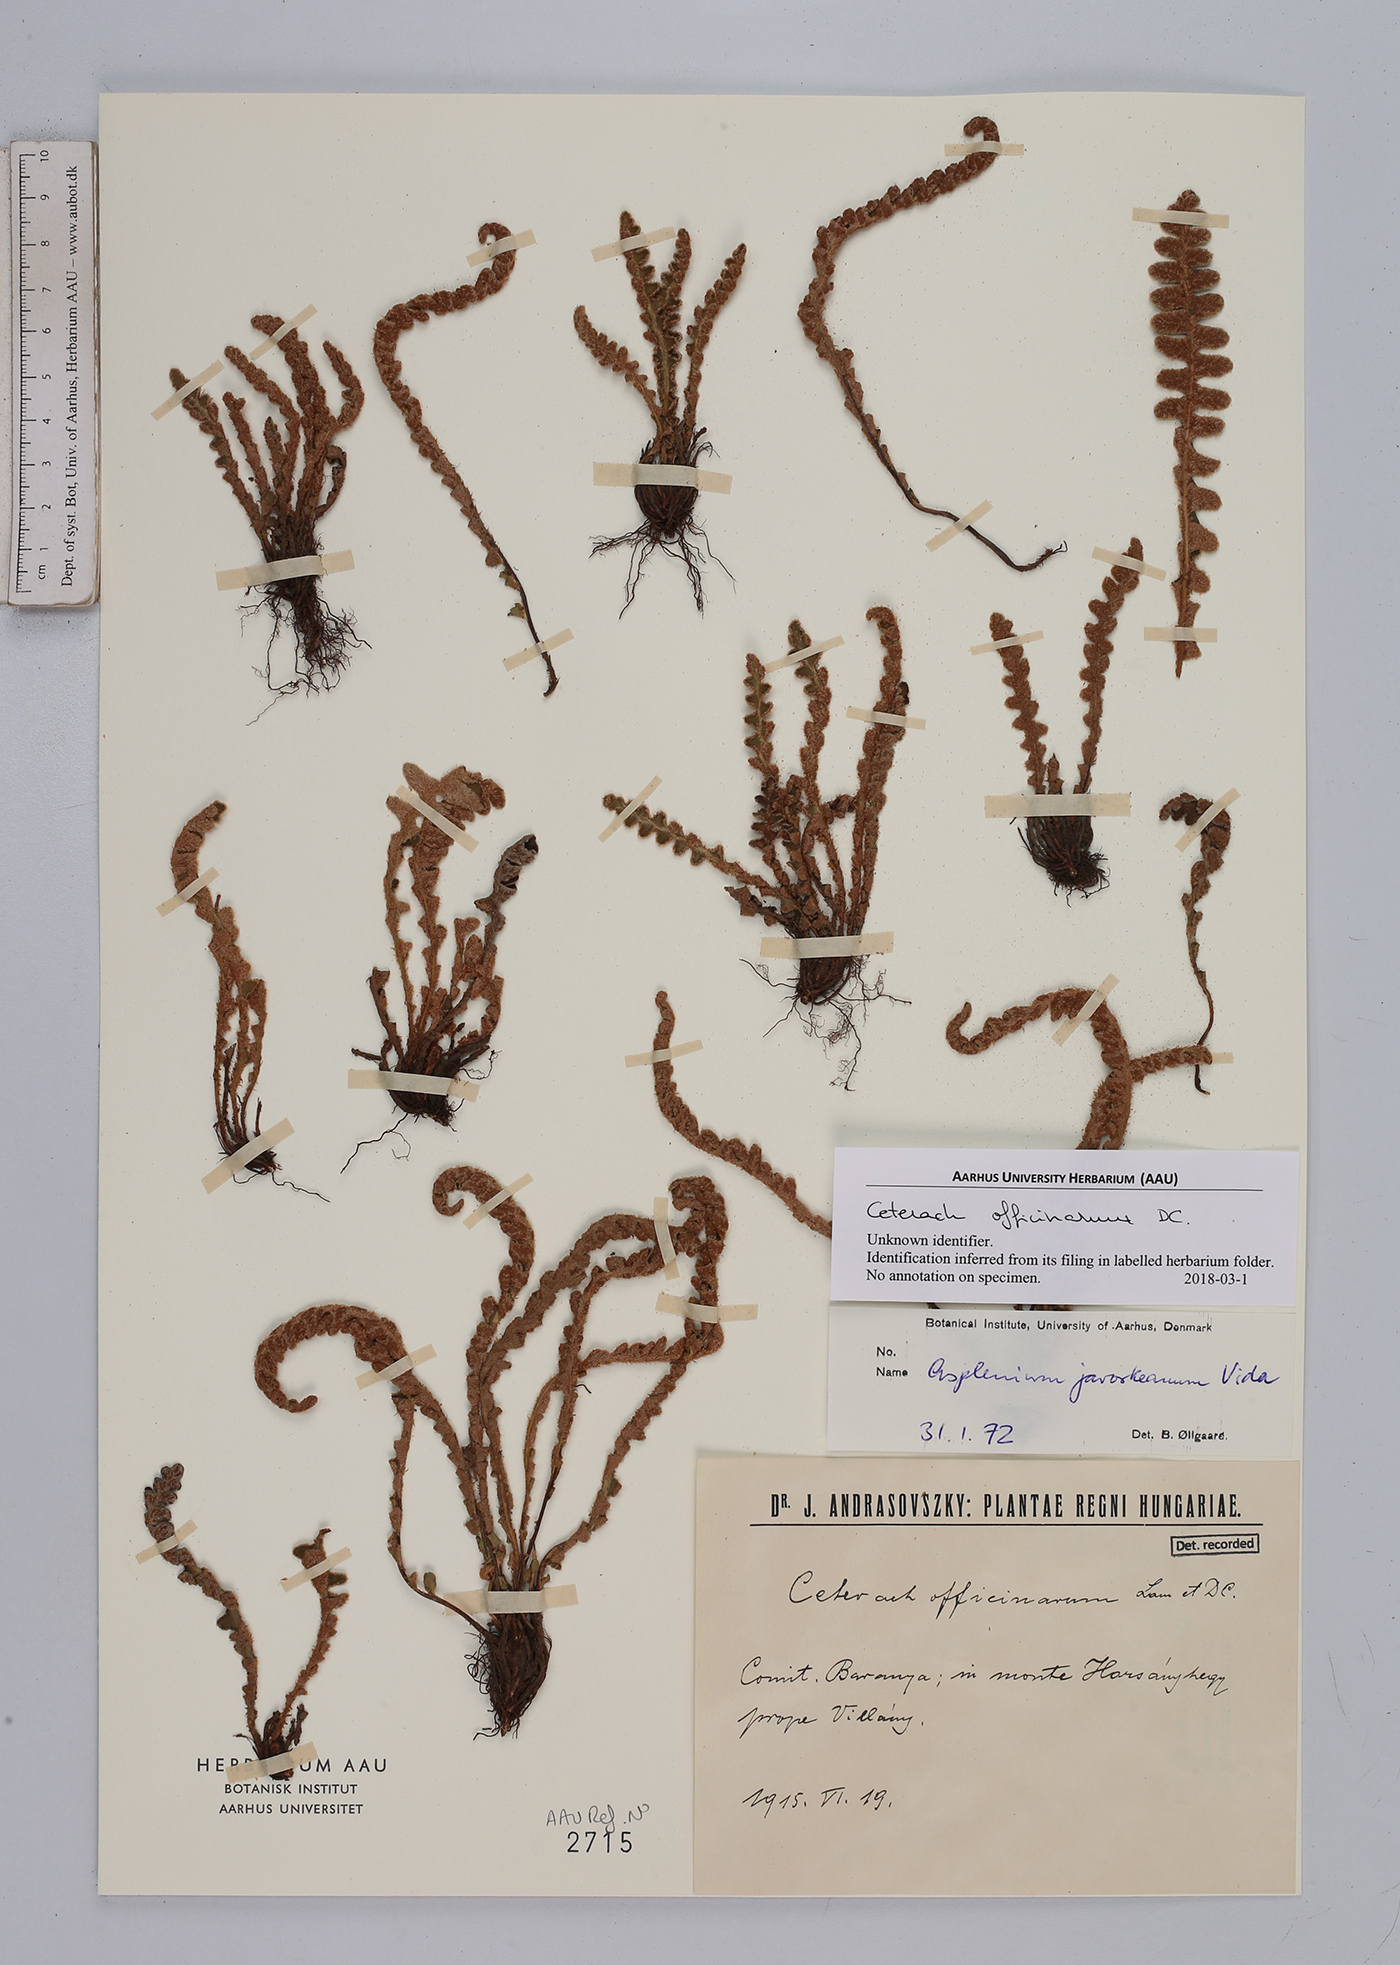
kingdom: Plantae
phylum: Tracheophyta
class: Polypodiopsida
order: Polypodiales
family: Aspleniaceae
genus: Asplenium
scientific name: Asplenium ceterach
